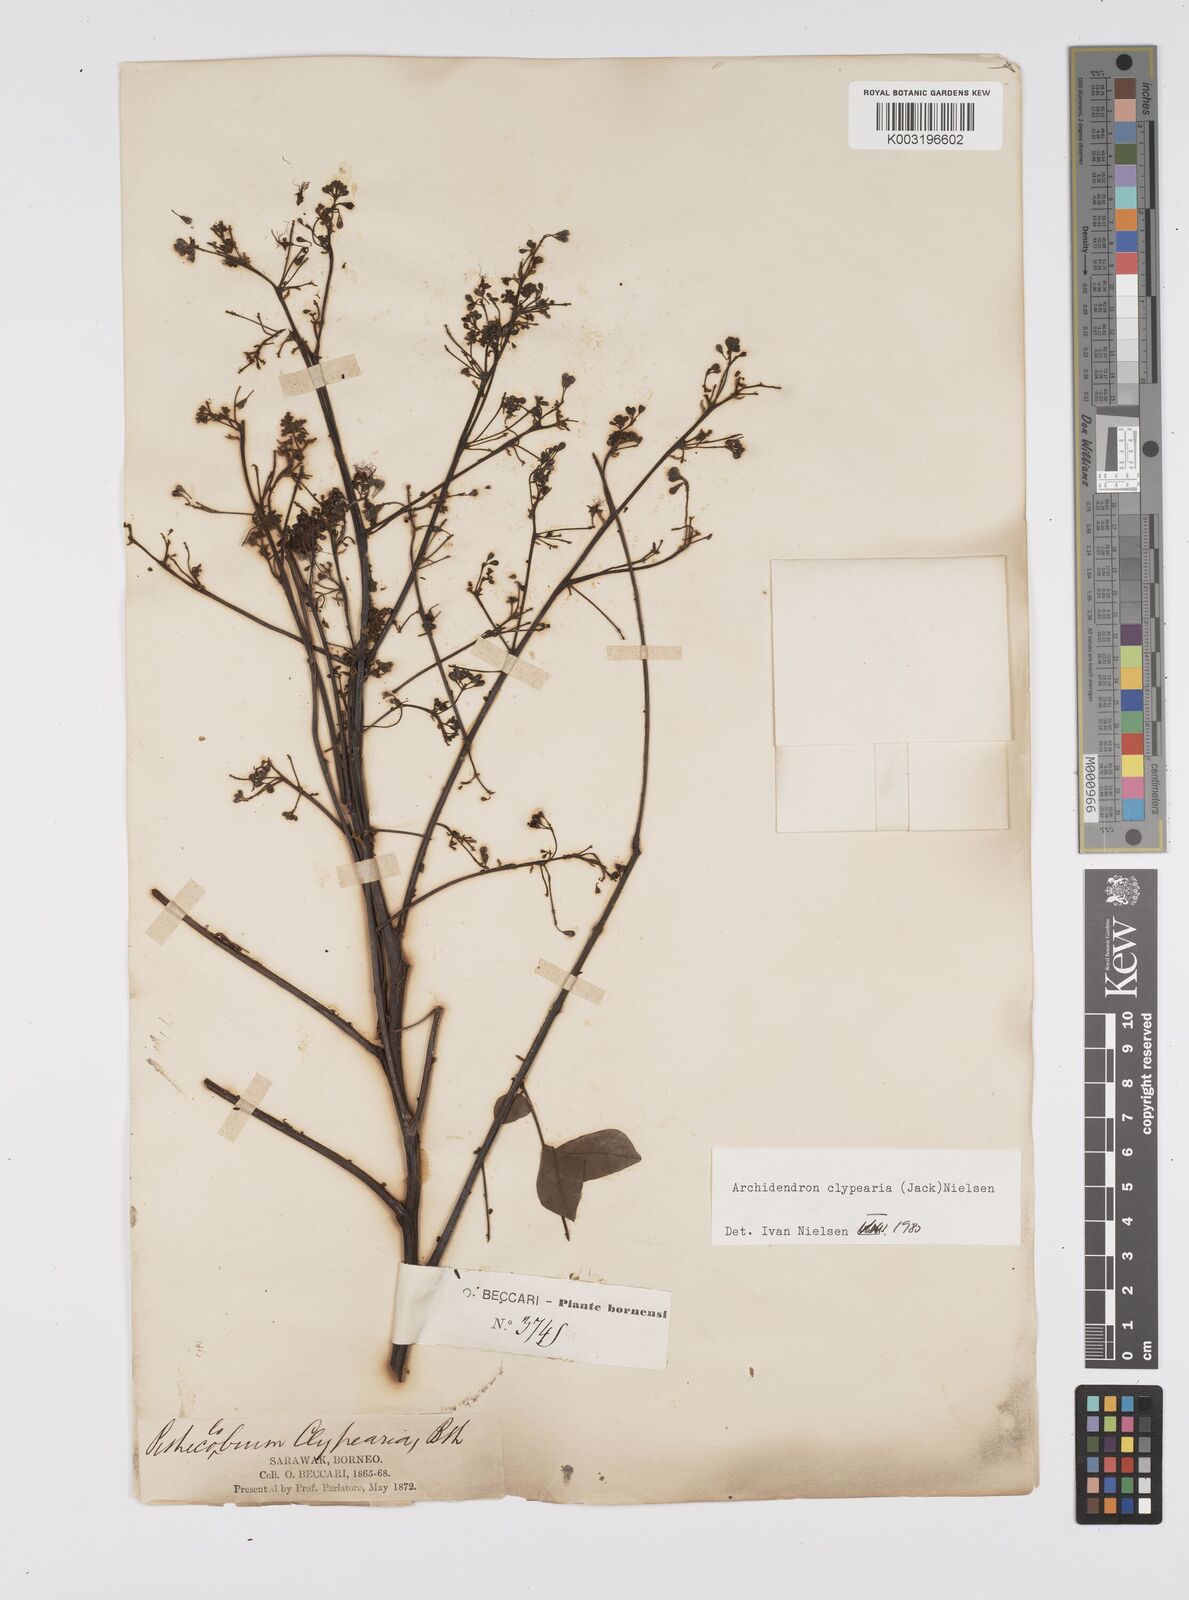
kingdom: Plantae
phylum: Tracheophyta
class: Magnoliopsida
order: Fabales
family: Fabaceae
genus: Archidendron
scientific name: Archidendron clypearia
